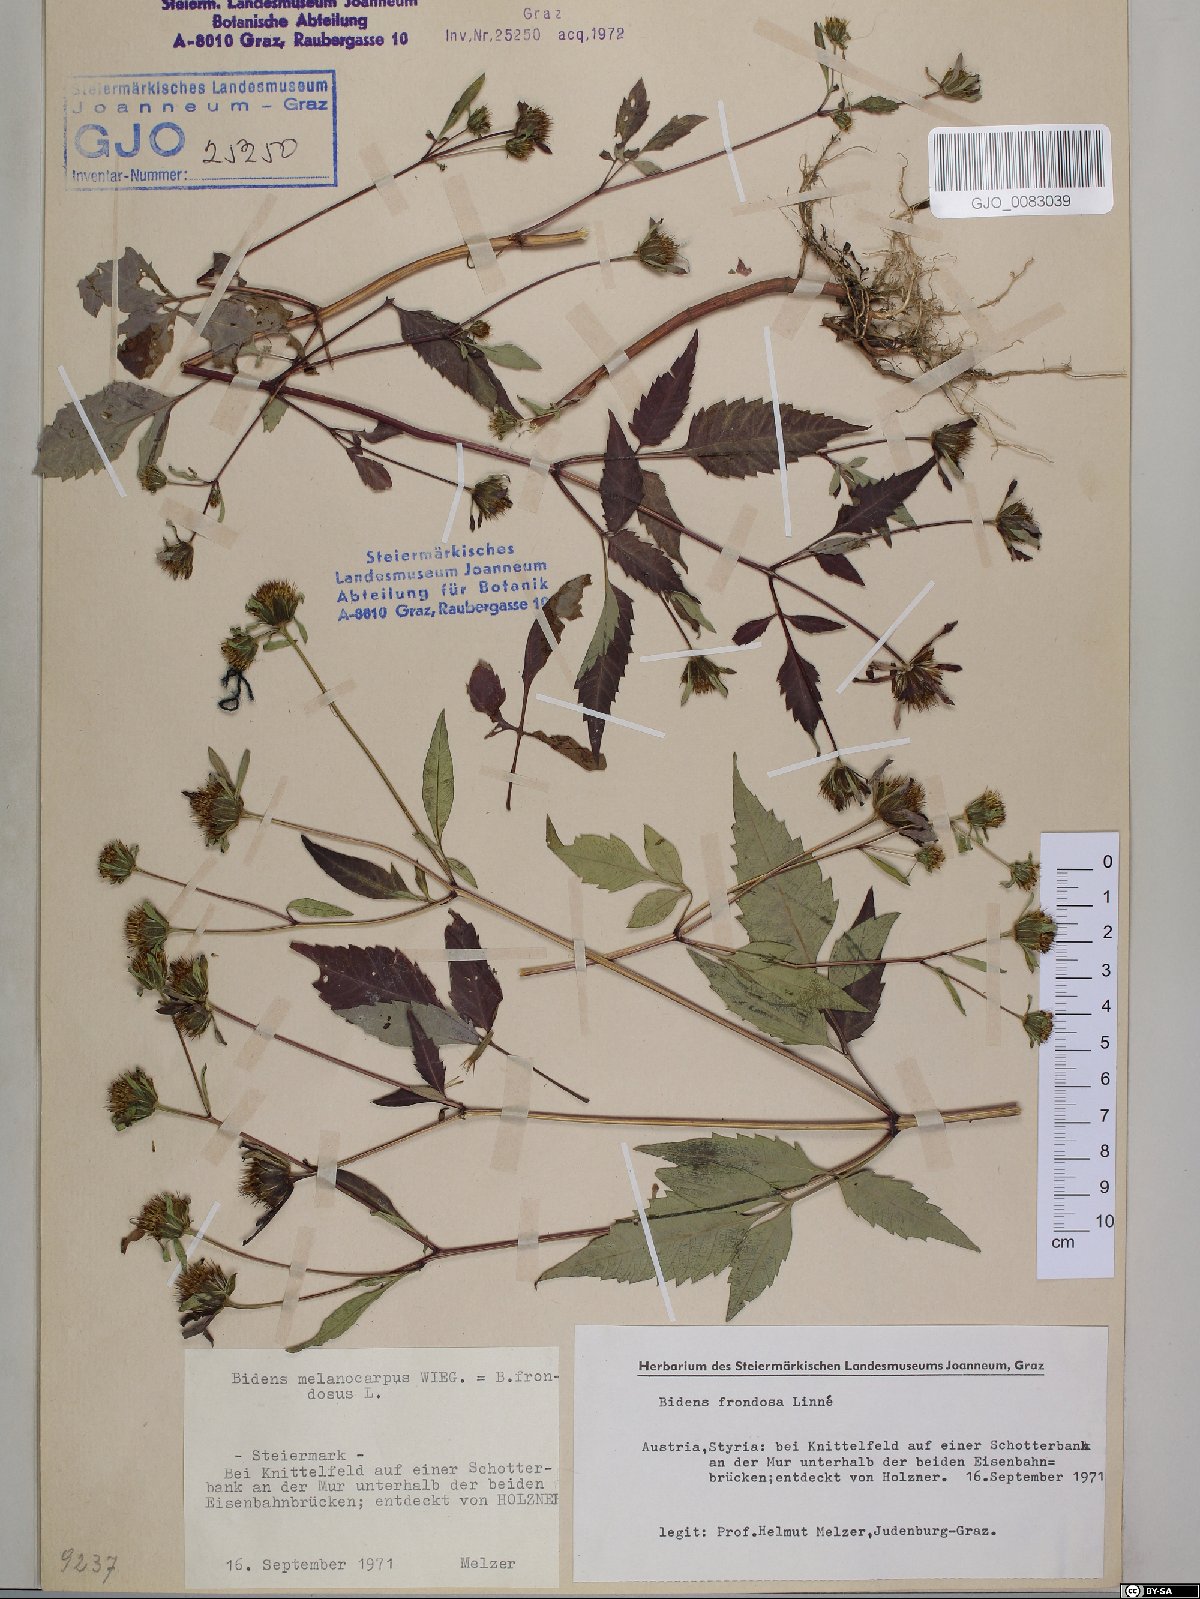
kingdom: Plantae
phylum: Tracheophyta
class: Magnoliopsida
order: Asterales
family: Asteraceae
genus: Bidens
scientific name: Bidens frondosa
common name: Beggarticks
